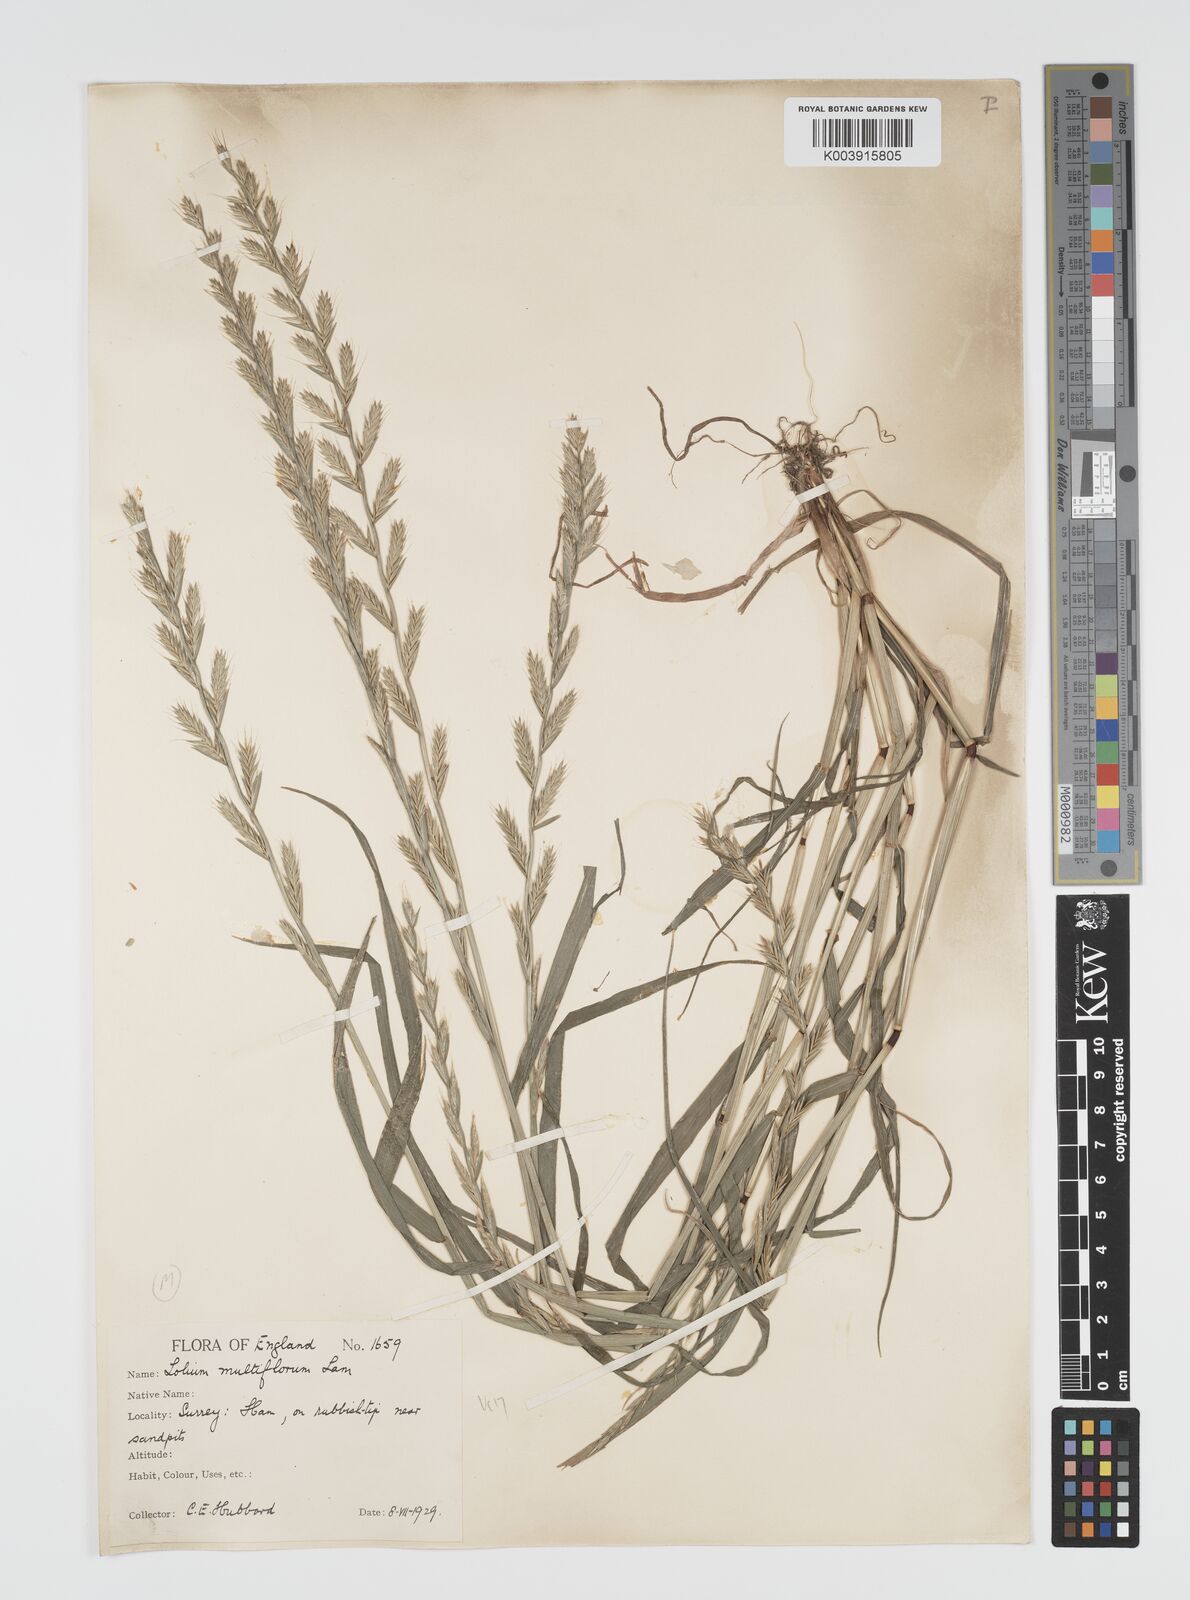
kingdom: Plantae
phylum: Tracheophyta
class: Liliopsida
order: Poales
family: Poaceae
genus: Lolium
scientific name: Lolium multiflorum
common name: Annual ryegrass
